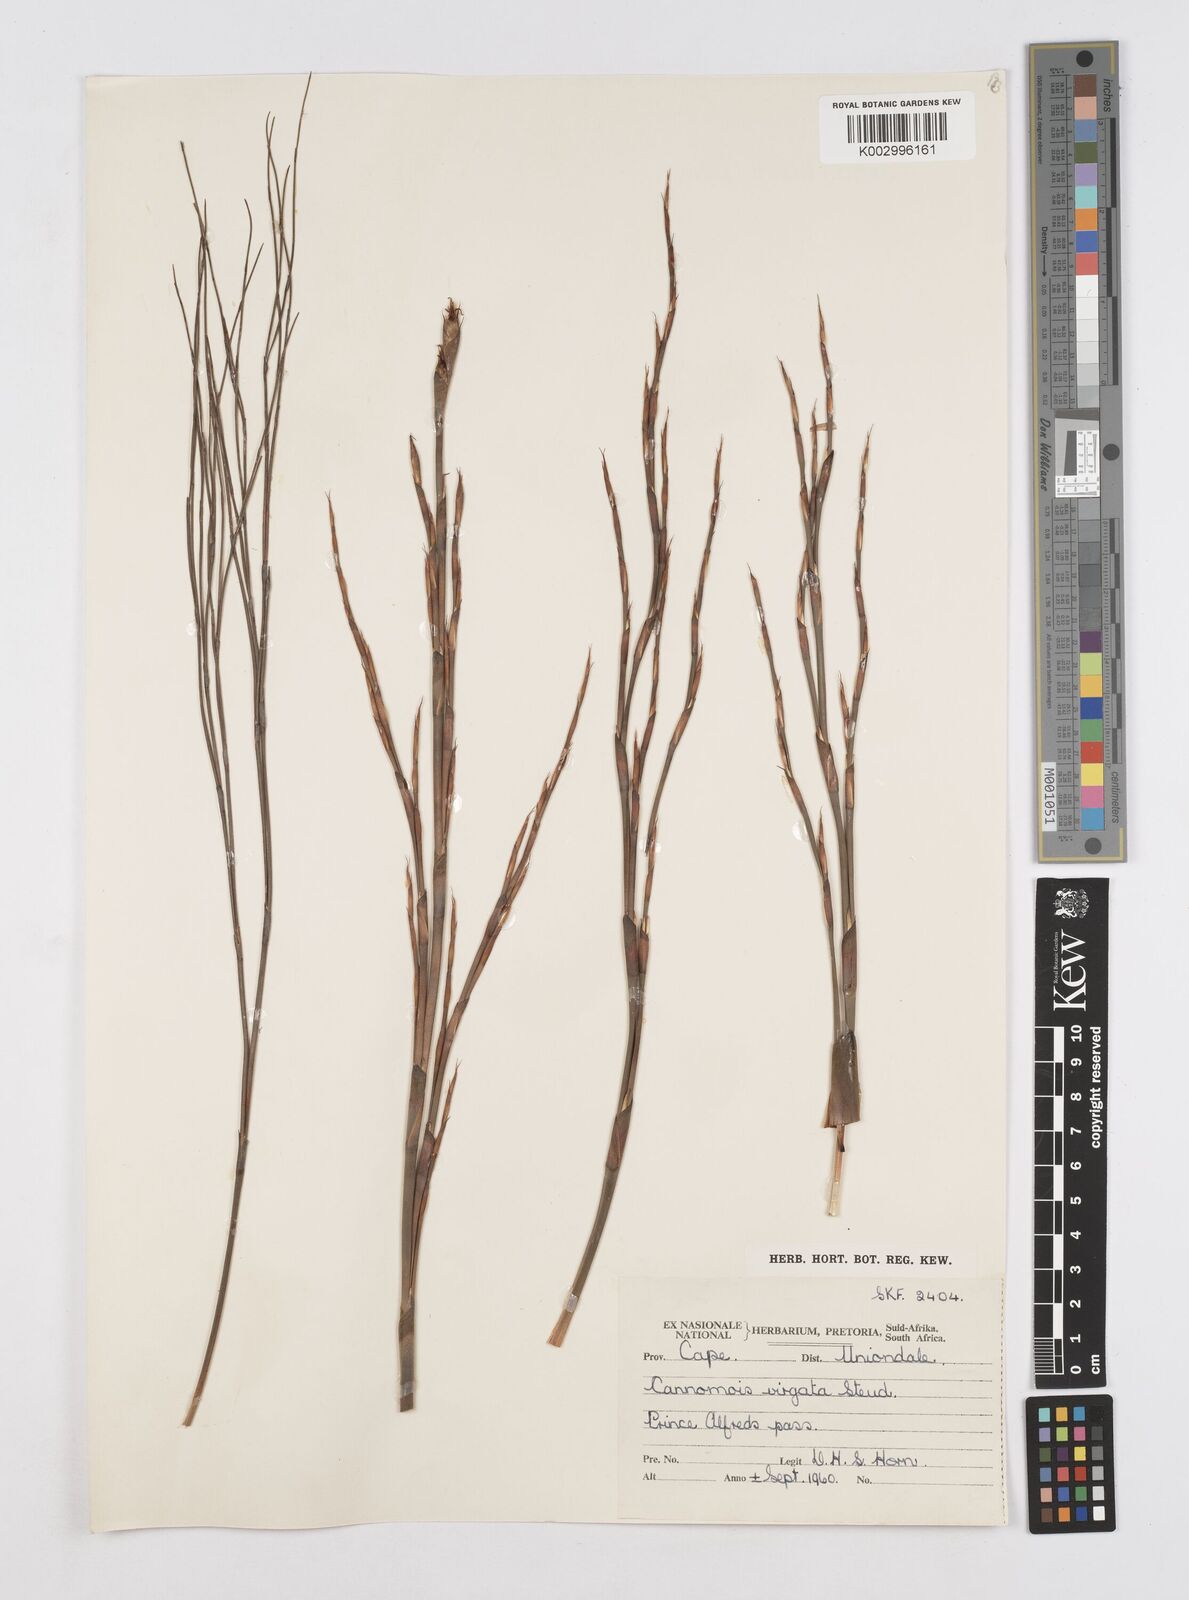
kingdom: Plantae
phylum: Tracheophyta
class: Liliopsida
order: Poales
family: Restionaceae
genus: Cannomois
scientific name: Cannomois virgata
